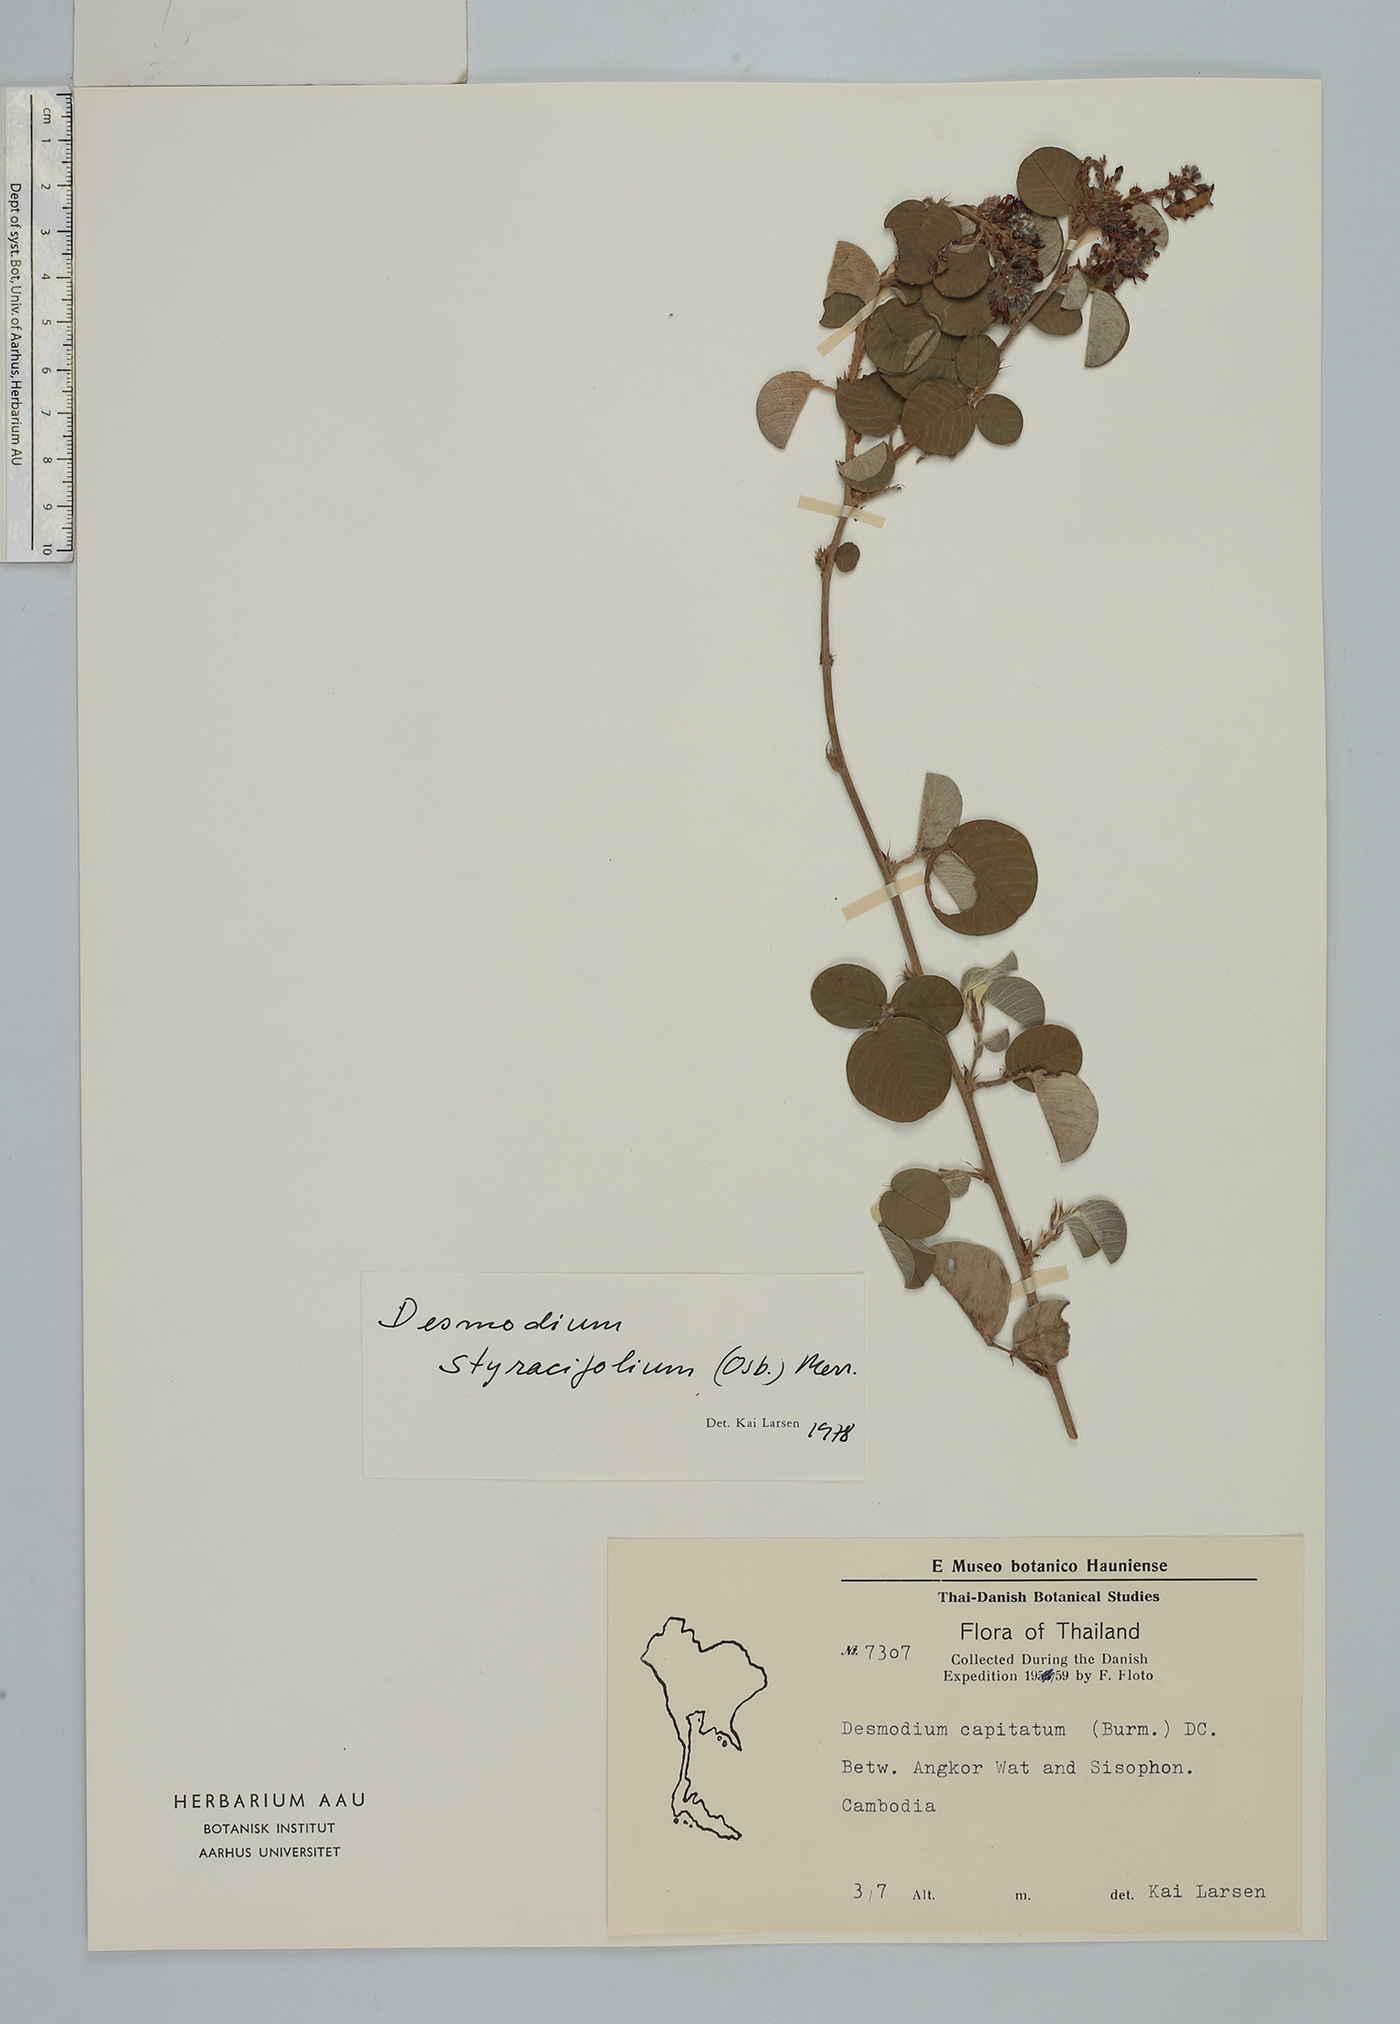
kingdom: Plantae
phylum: Tracheophyta
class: Magnoliopsida
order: Fabales
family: Fabaceae
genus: Grona
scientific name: Grona styracifolia
